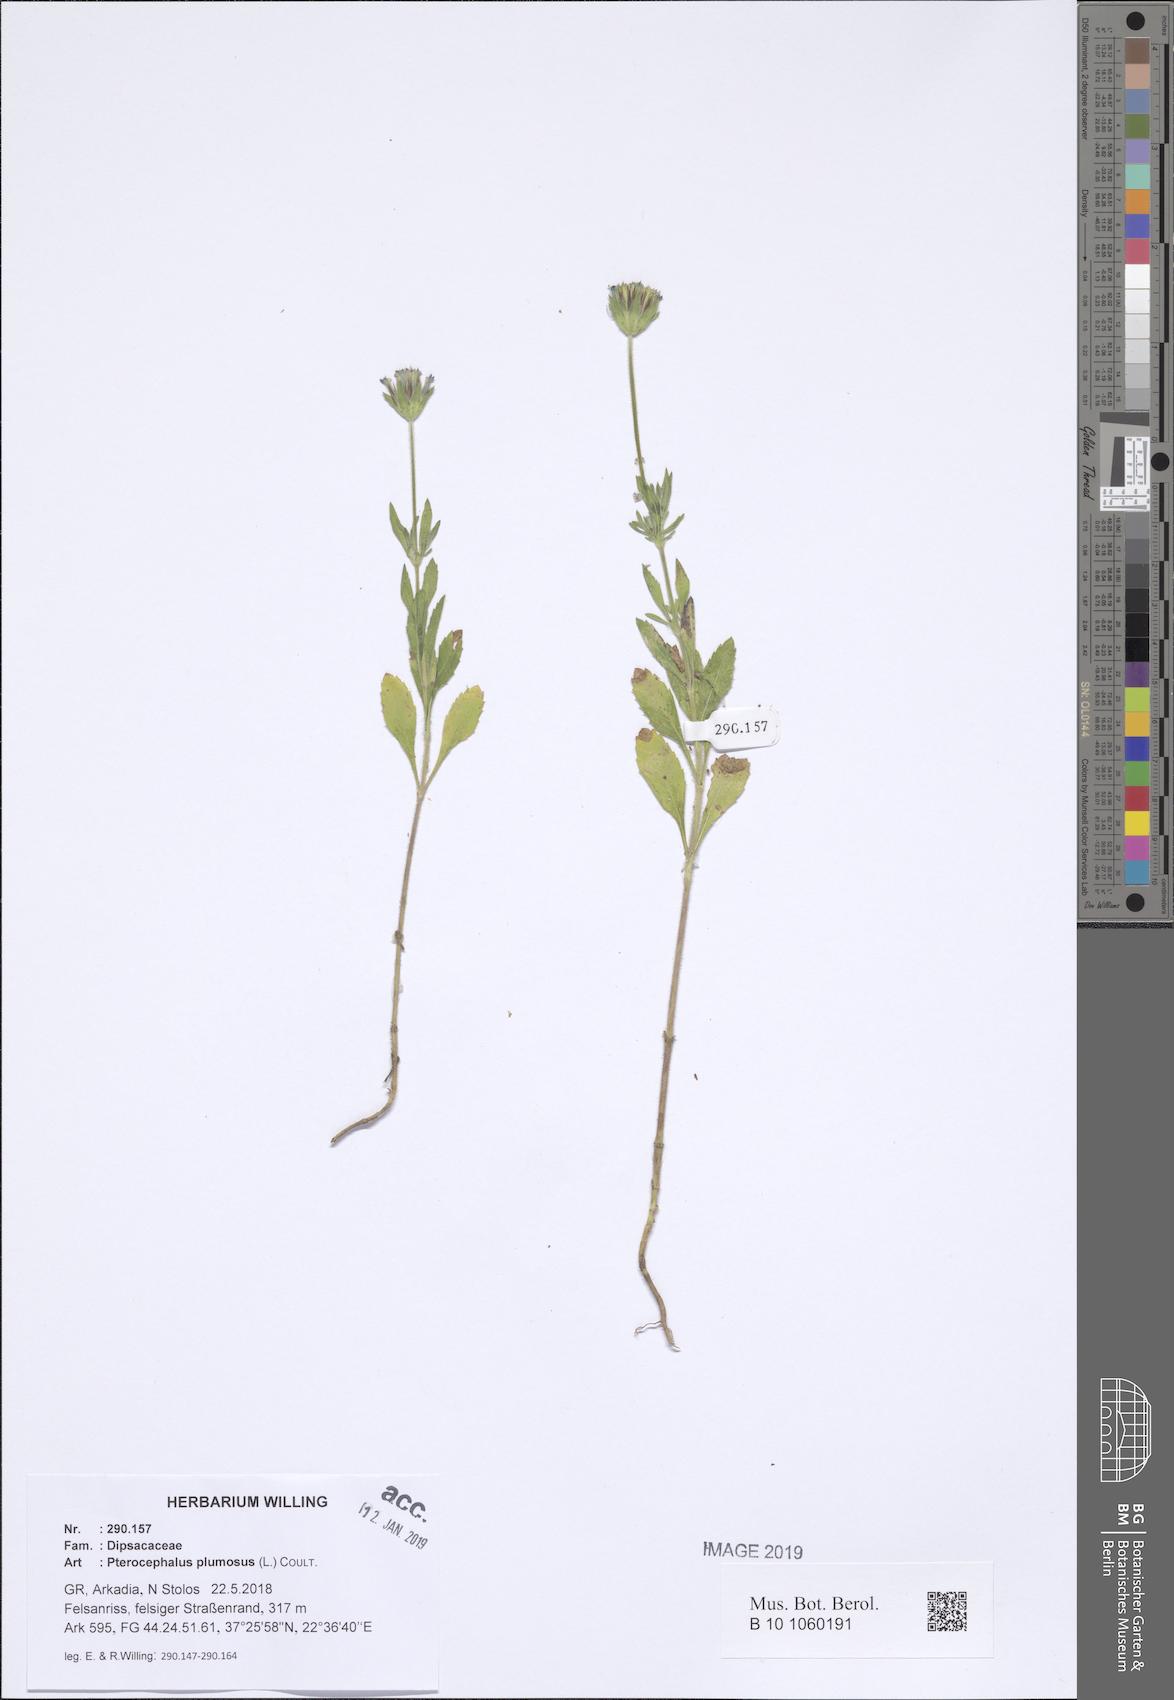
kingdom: Plantae
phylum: Tracheophyta
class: Magnoliopsida
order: Dipsacales
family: Caprifoliaceae
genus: Pterocephalus
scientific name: Pterocephalus plumosus
